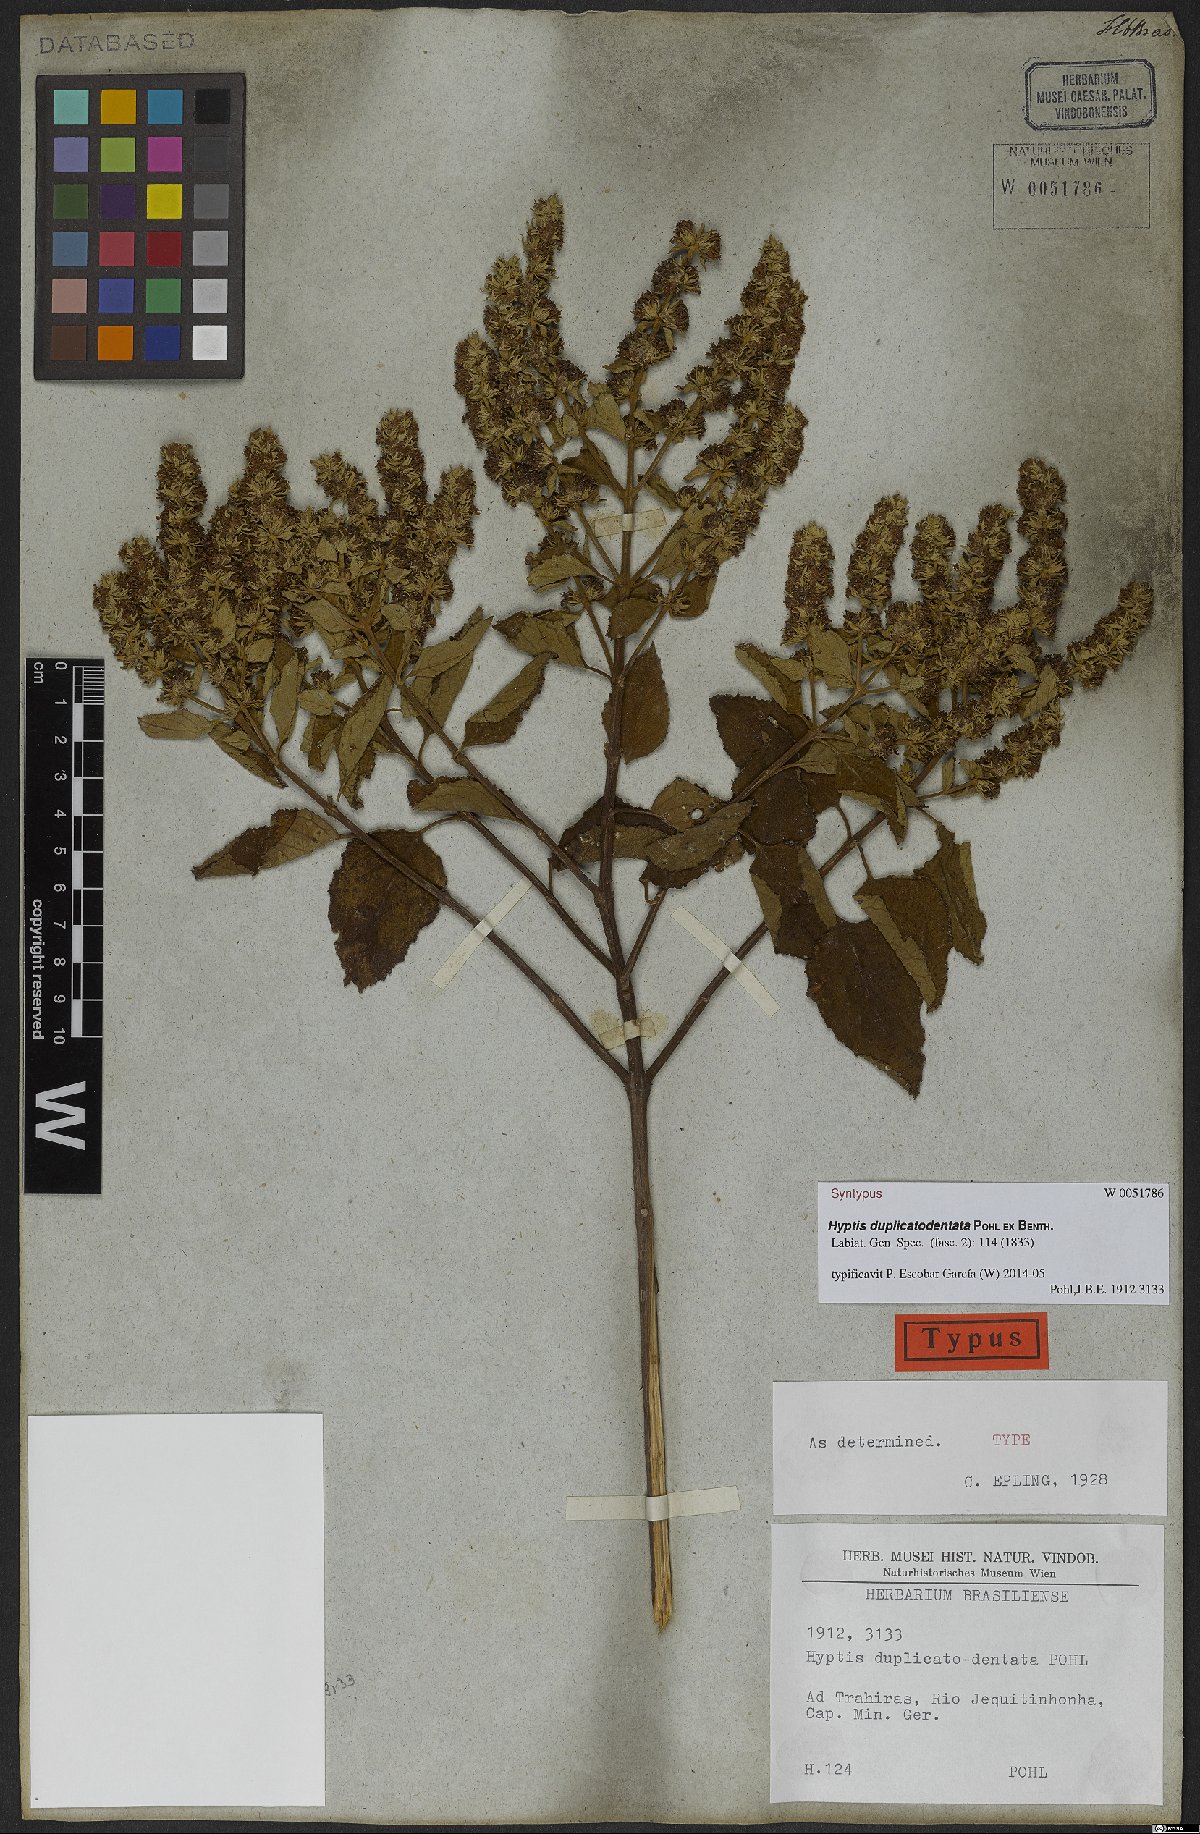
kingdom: Plantae
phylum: Tracheophyta
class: Magnoliopsida
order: Lamiales
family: Lamiaceae
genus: Cantinoa
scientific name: Cantinoa duplicatodentata
